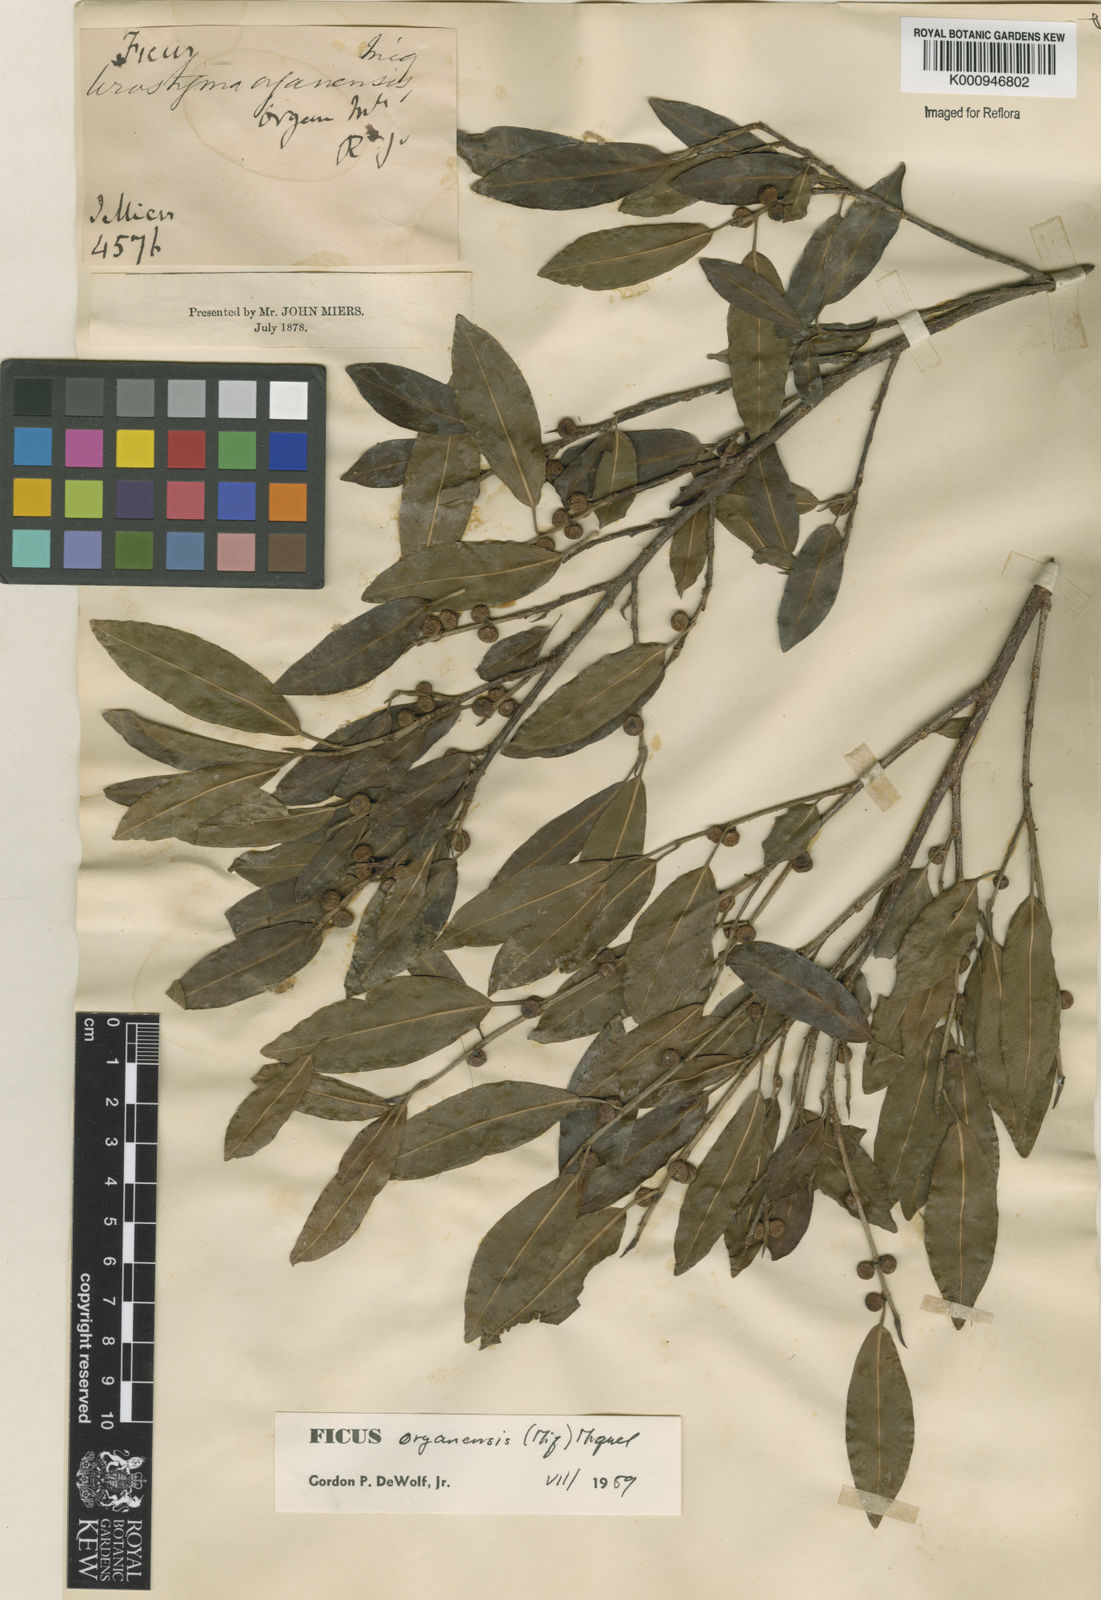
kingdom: Plantae
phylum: Tracheophyta
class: Magnoliopsida
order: Rosales
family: Moraceae
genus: Ficus
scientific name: Ficus organensis
